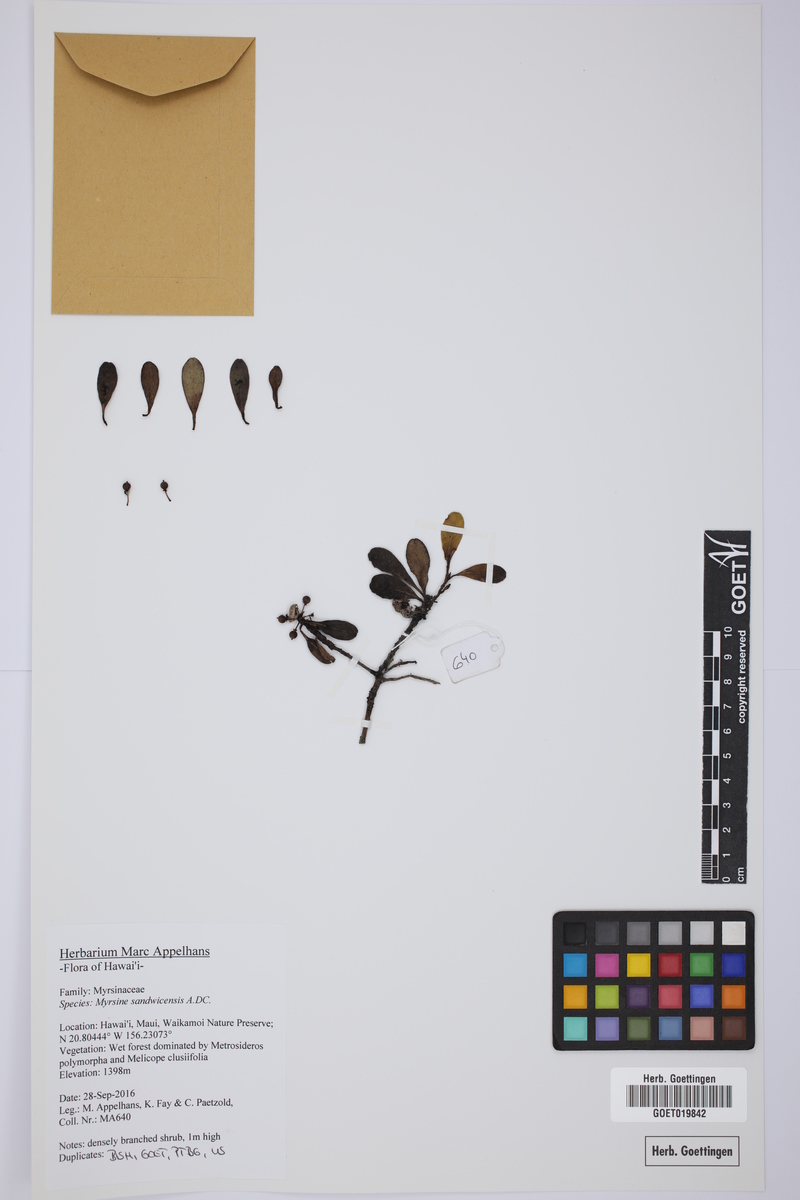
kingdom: Plantae
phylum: Tracheophyta
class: Magnoliopsida
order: Ericales
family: Primulaceae
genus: Myrsine
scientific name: Myrsine sandwicensis
